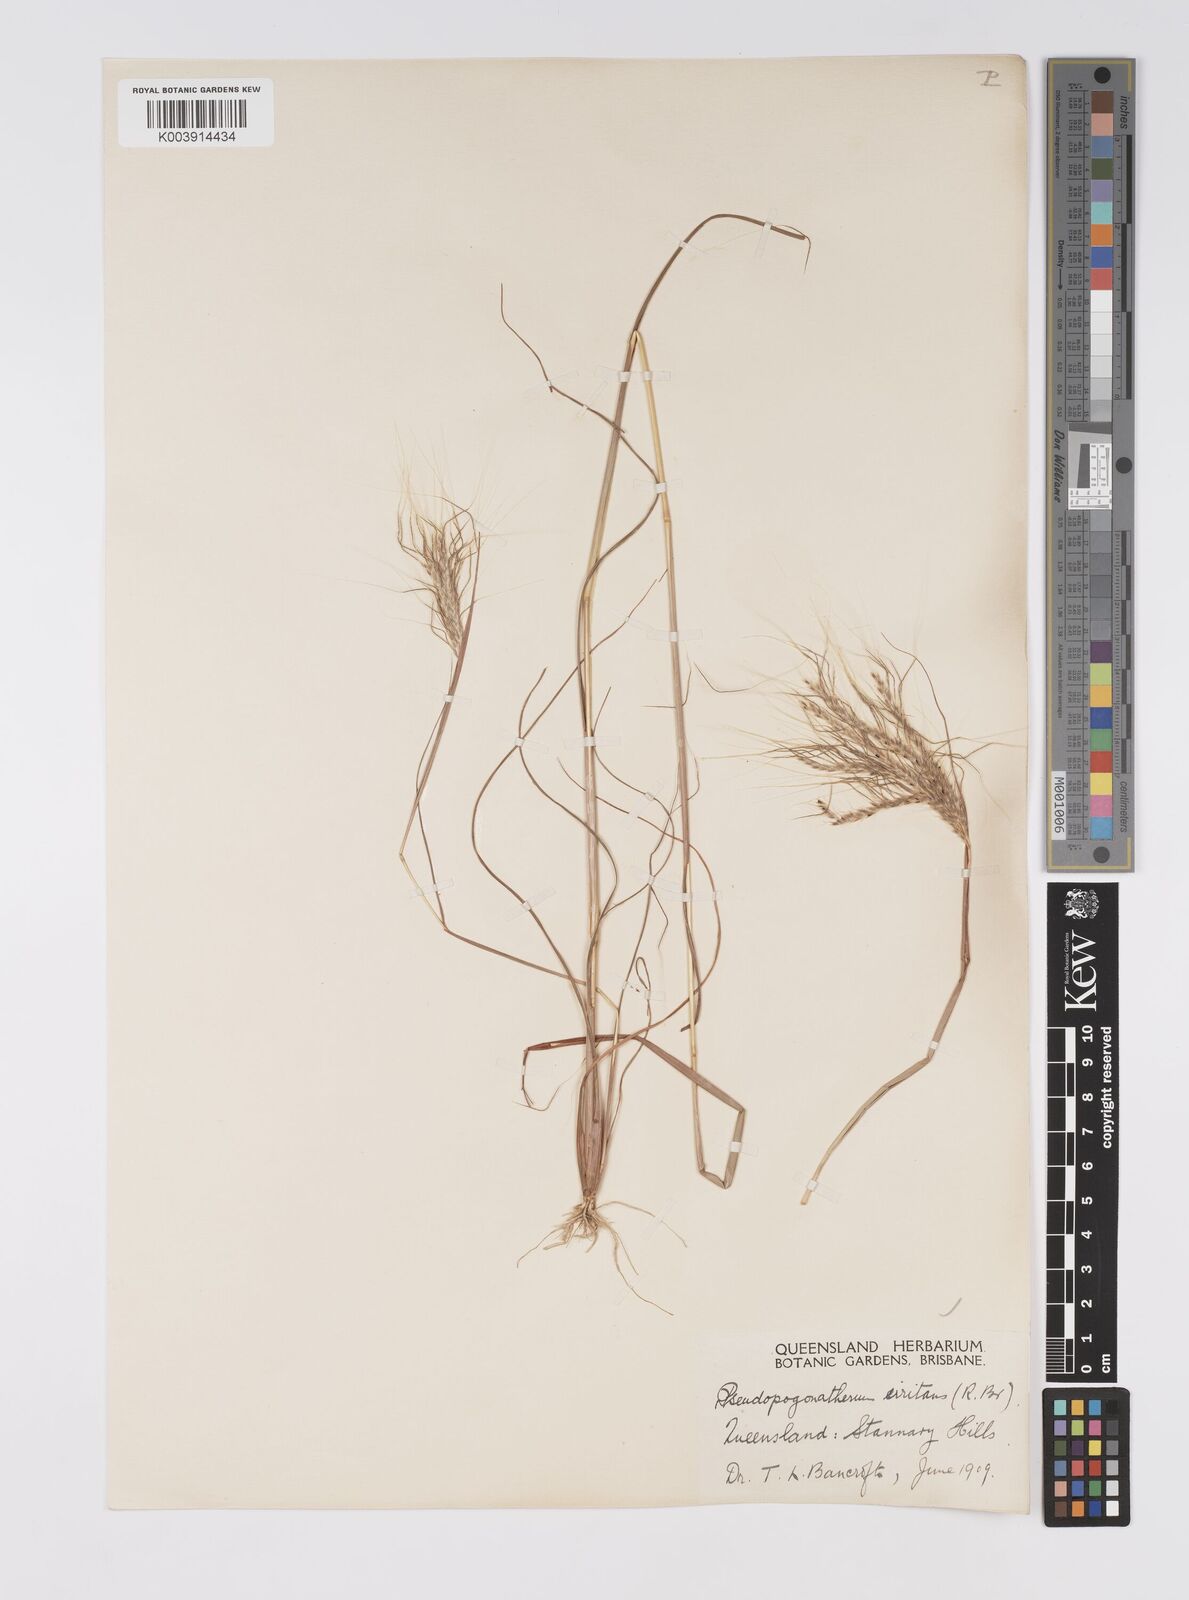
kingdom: Plantae
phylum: Tracheophyta
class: Liliopsida
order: Poales
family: Poaceae
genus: Pseudopogonatherum
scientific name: Pseudopogonatherum irritans
